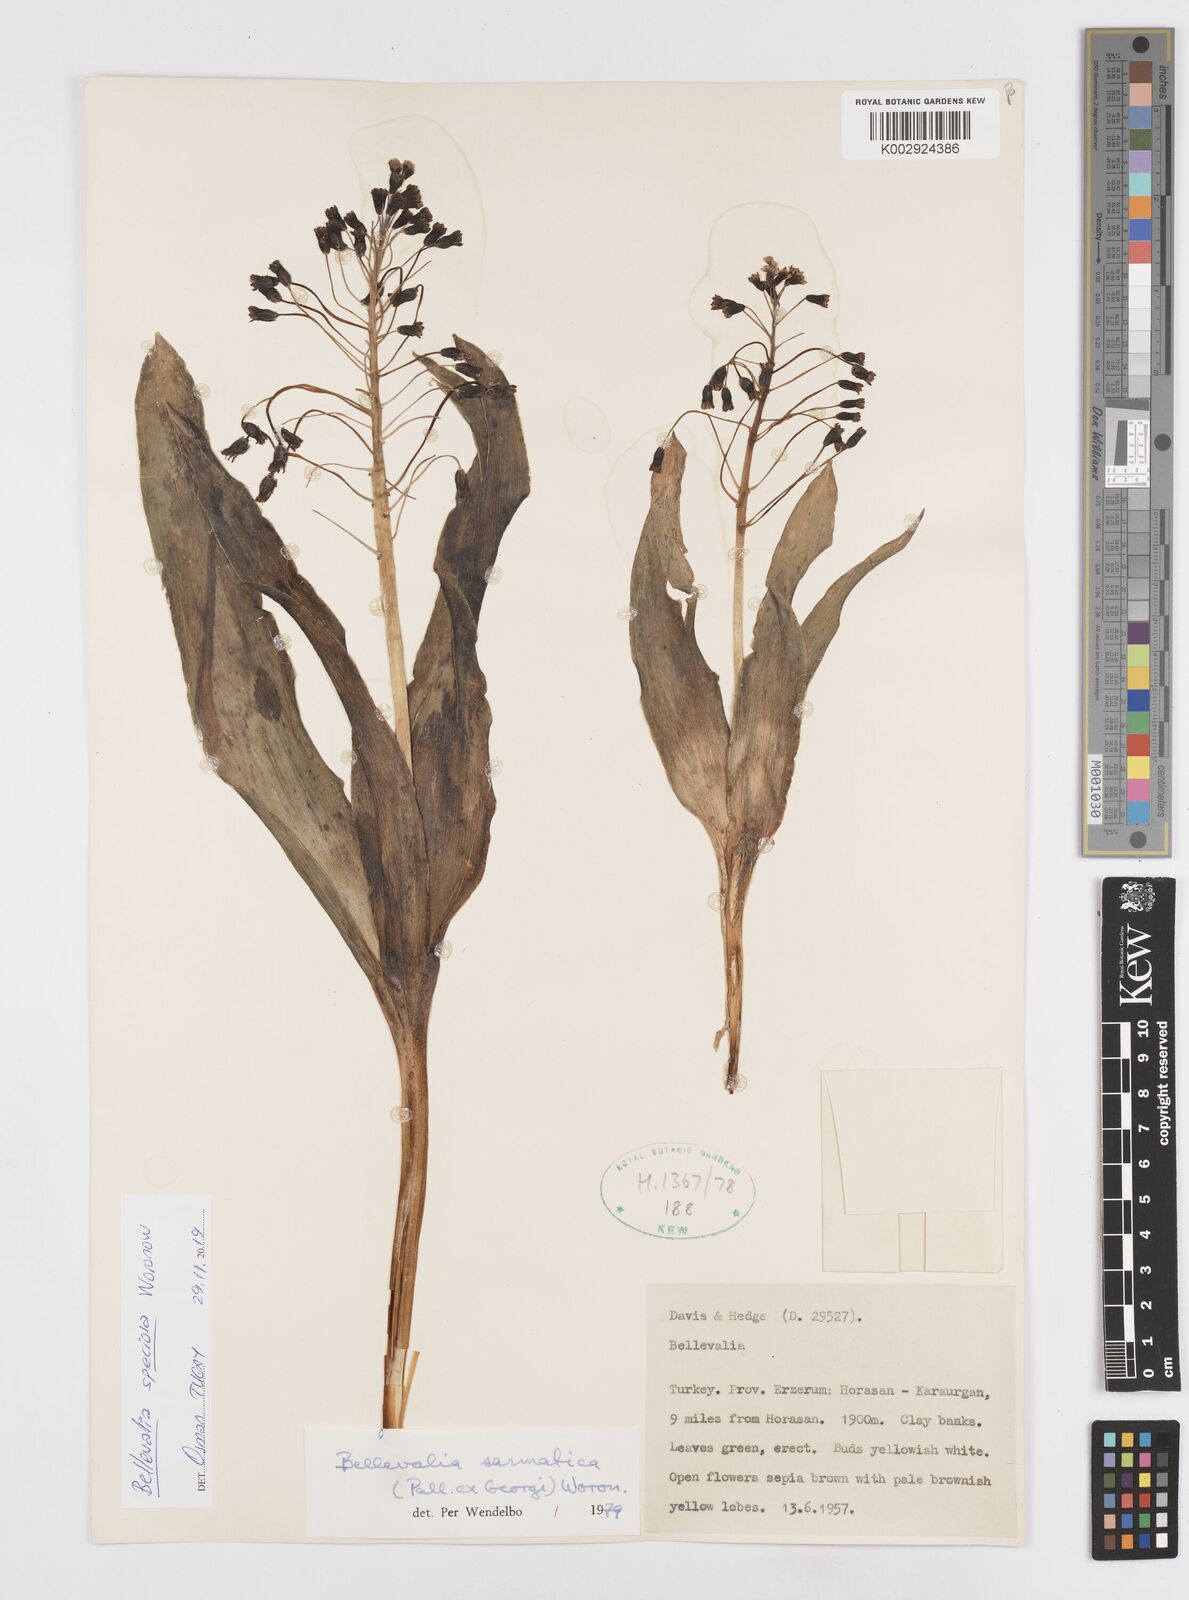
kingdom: Plantae
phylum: Tracheophyta
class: Liliopsida
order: Asparagales
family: Asparagaceae
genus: Bellevalia
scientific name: Bellevalia speciosa
